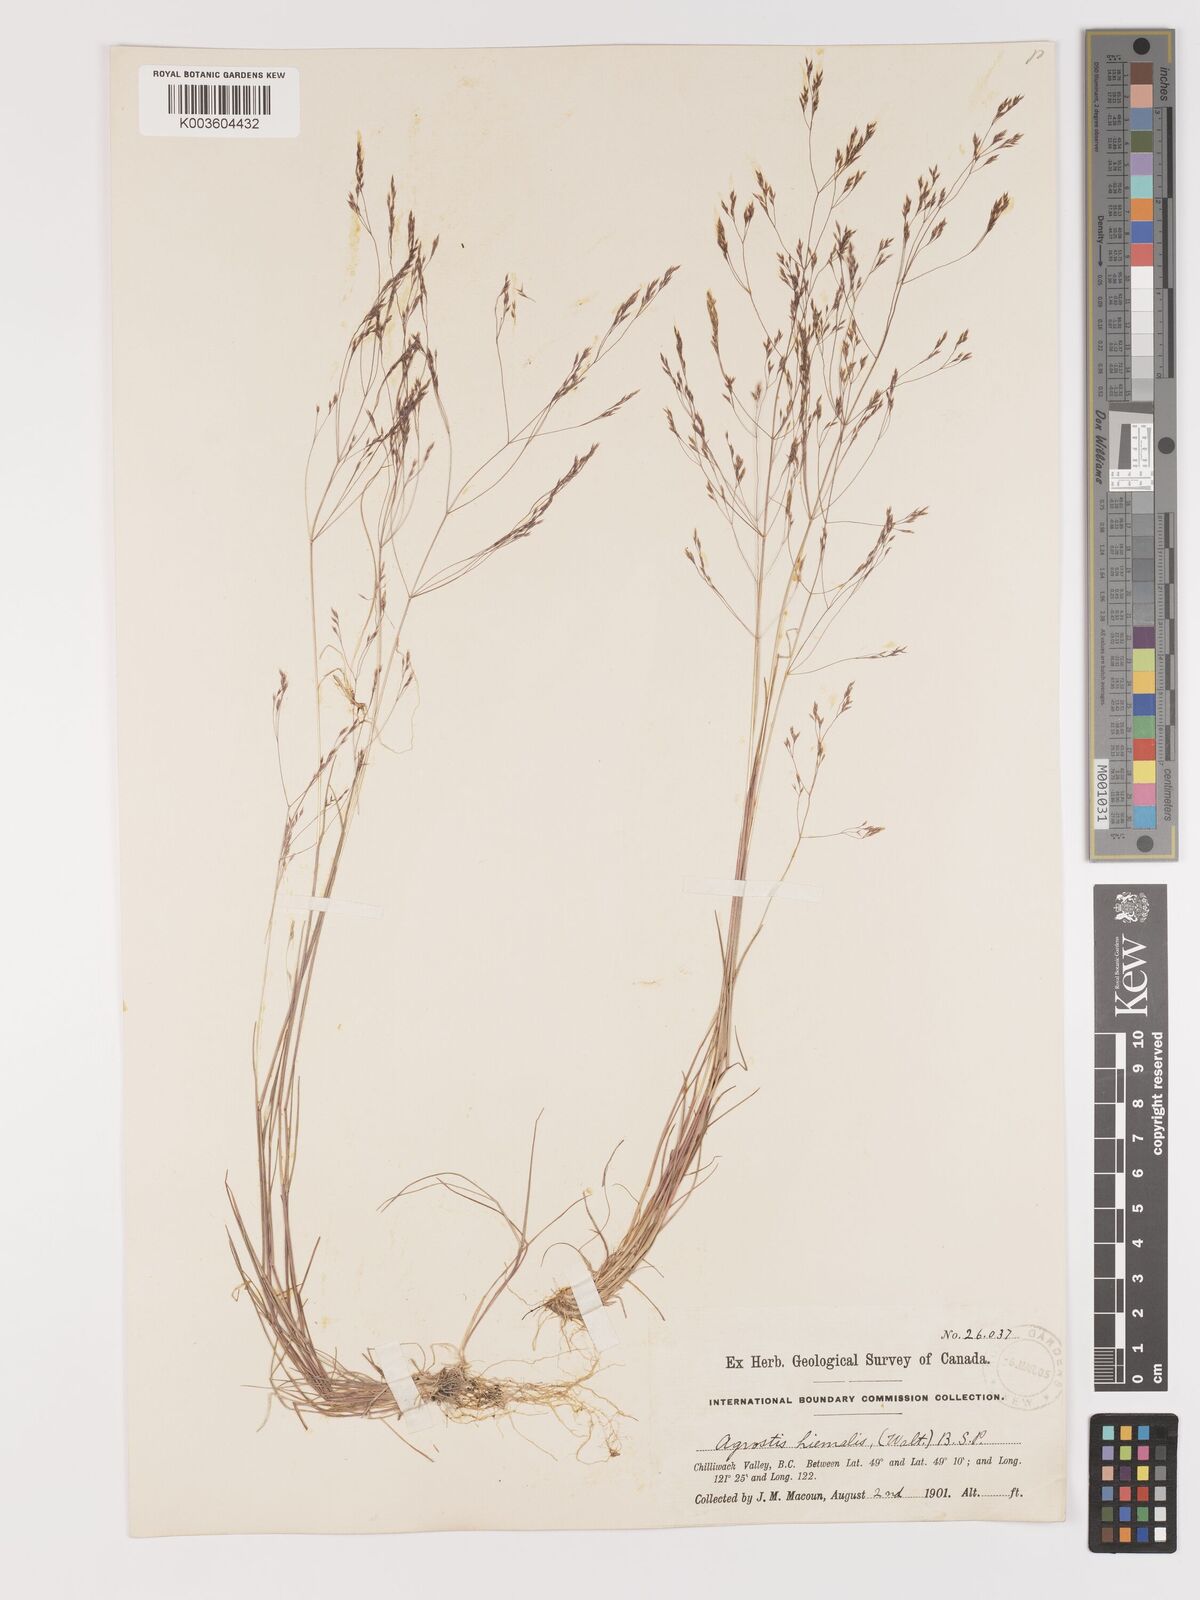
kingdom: Plantae
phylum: Tracheophyta
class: Liliopsida
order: Poales
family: Poaceae
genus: Agrostis
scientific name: Agrostis hyemalis
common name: Small bent
